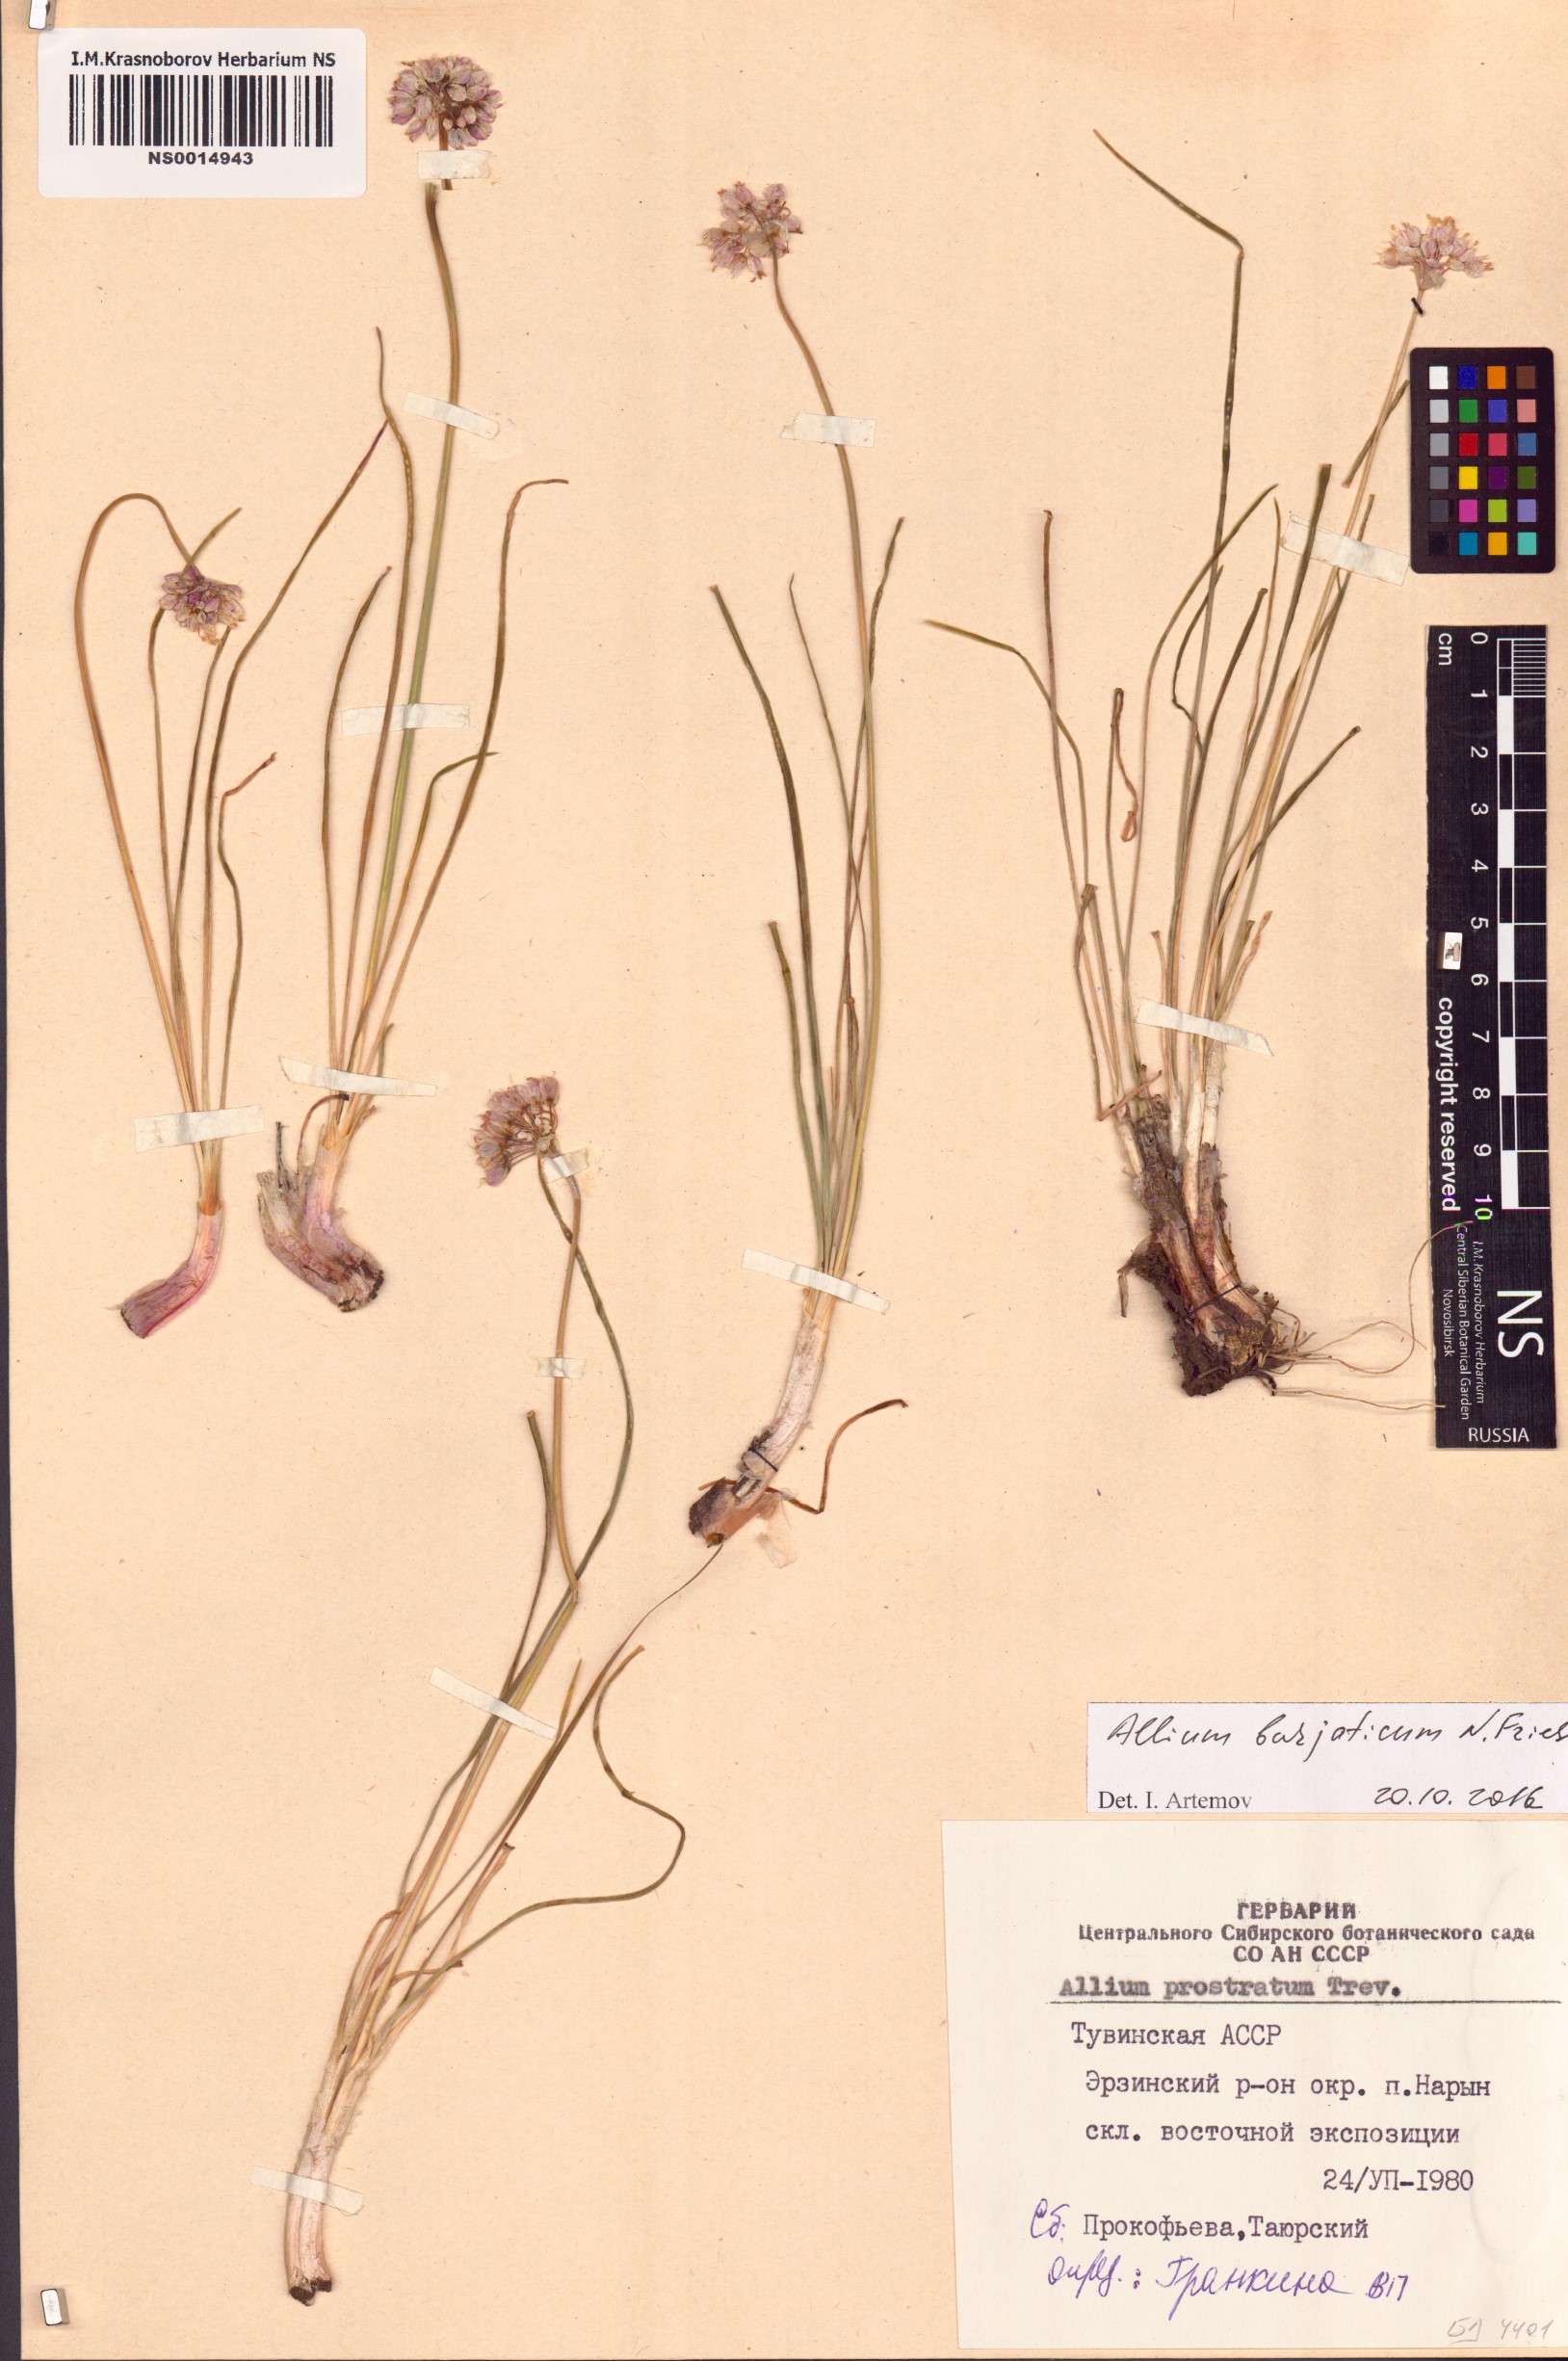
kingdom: Plantae
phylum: Tracheophyta
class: Liliopsida
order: Asparagales
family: Amaryllidaceae
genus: Allium
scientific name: Allium burjaticum
